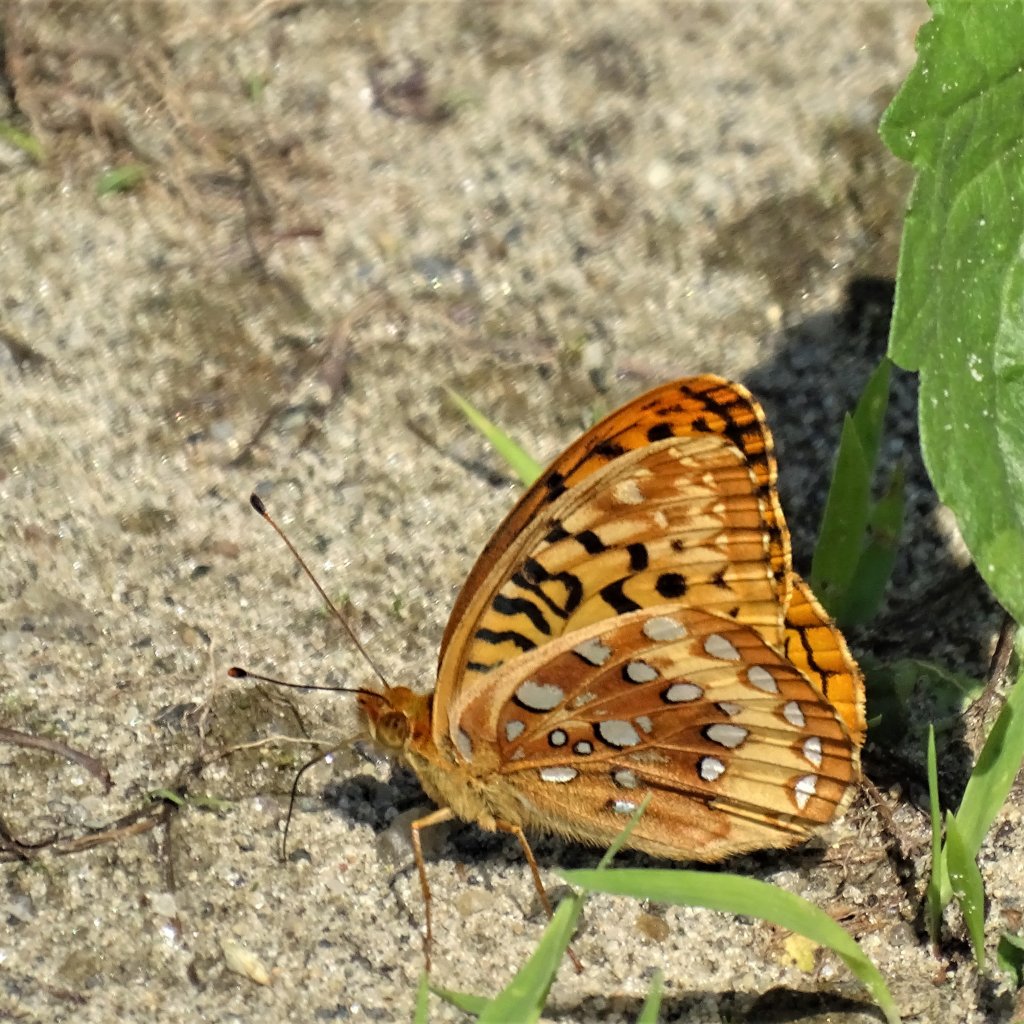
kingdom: Animalia
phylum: Arthropoda
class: Insecta
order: Lepidoptera
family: Nymphalidae
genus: Speyeria
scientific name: Speyeria cybele
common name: Great Spangled Fritillary
